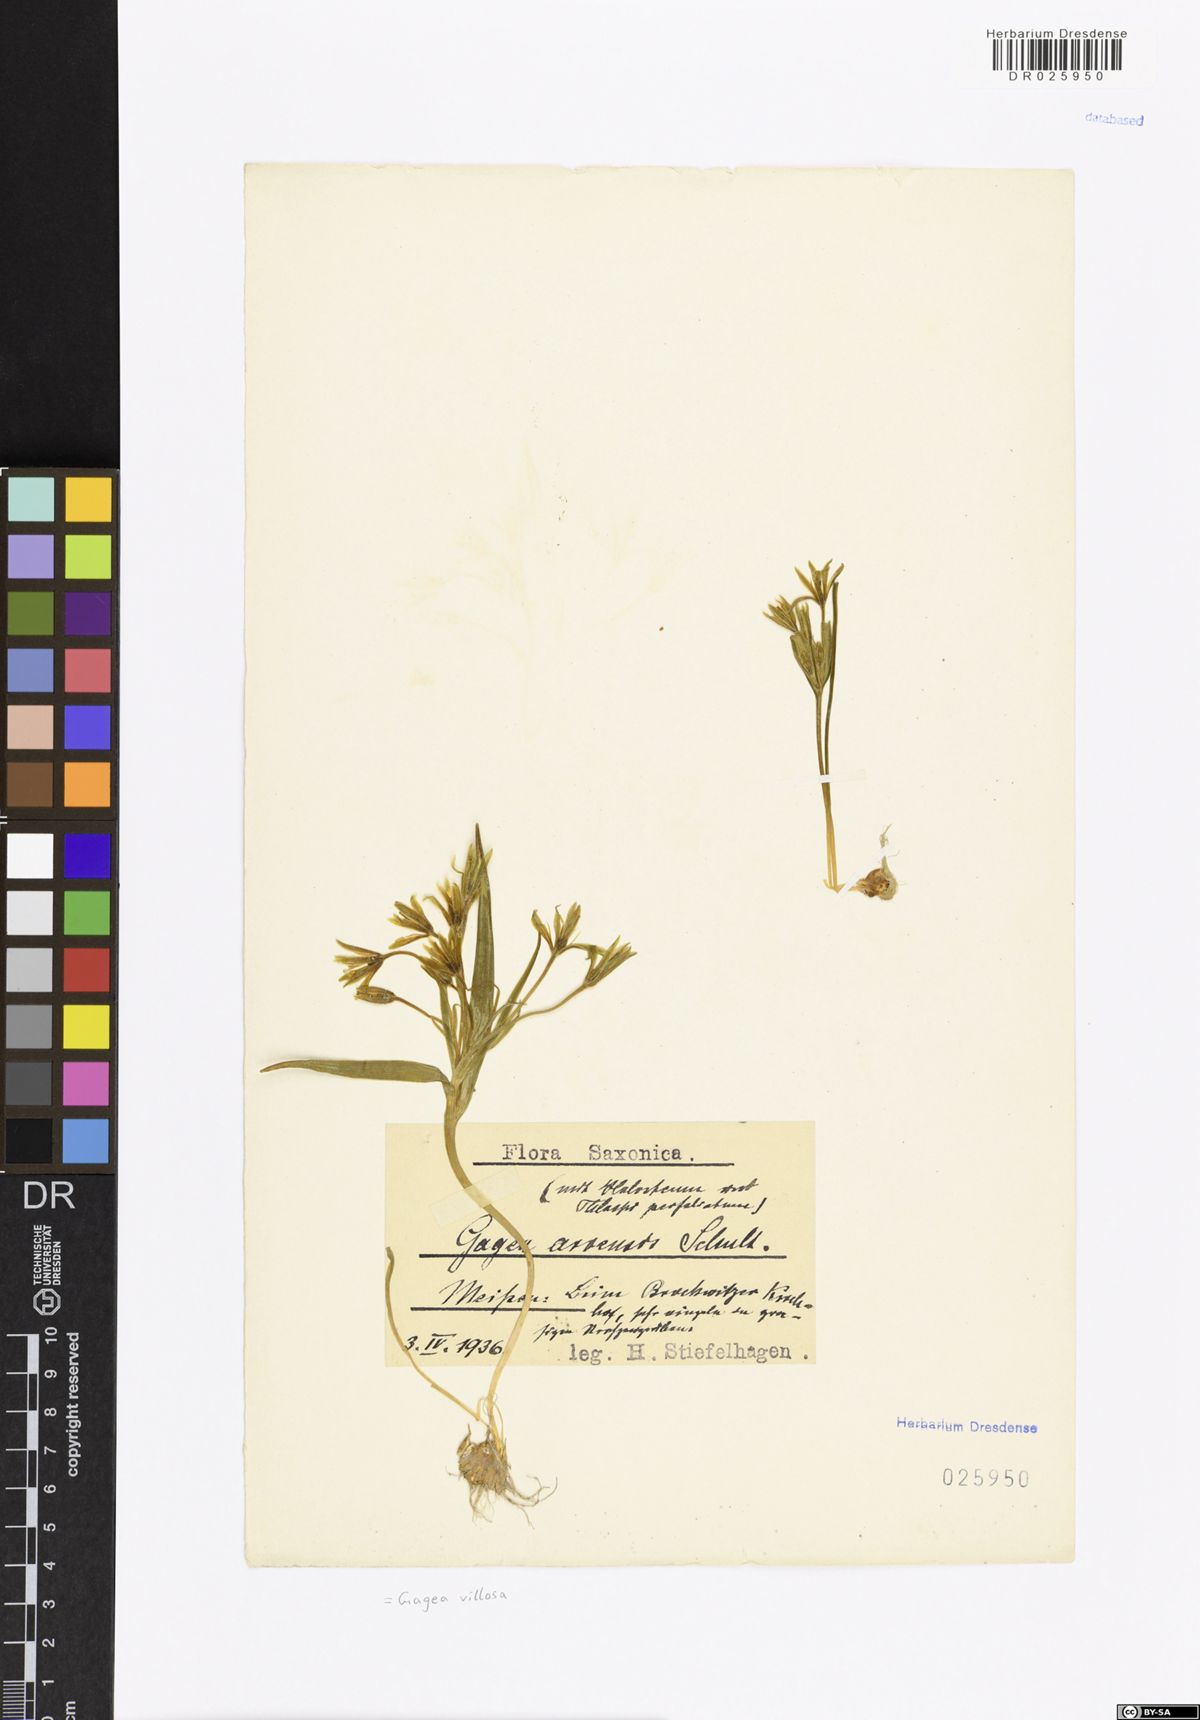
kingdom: Plantae
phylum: Tracheophyta
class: Liliopsida
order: Liliales
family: Liliaceae
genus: Gagea
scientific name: Gagea villosa
